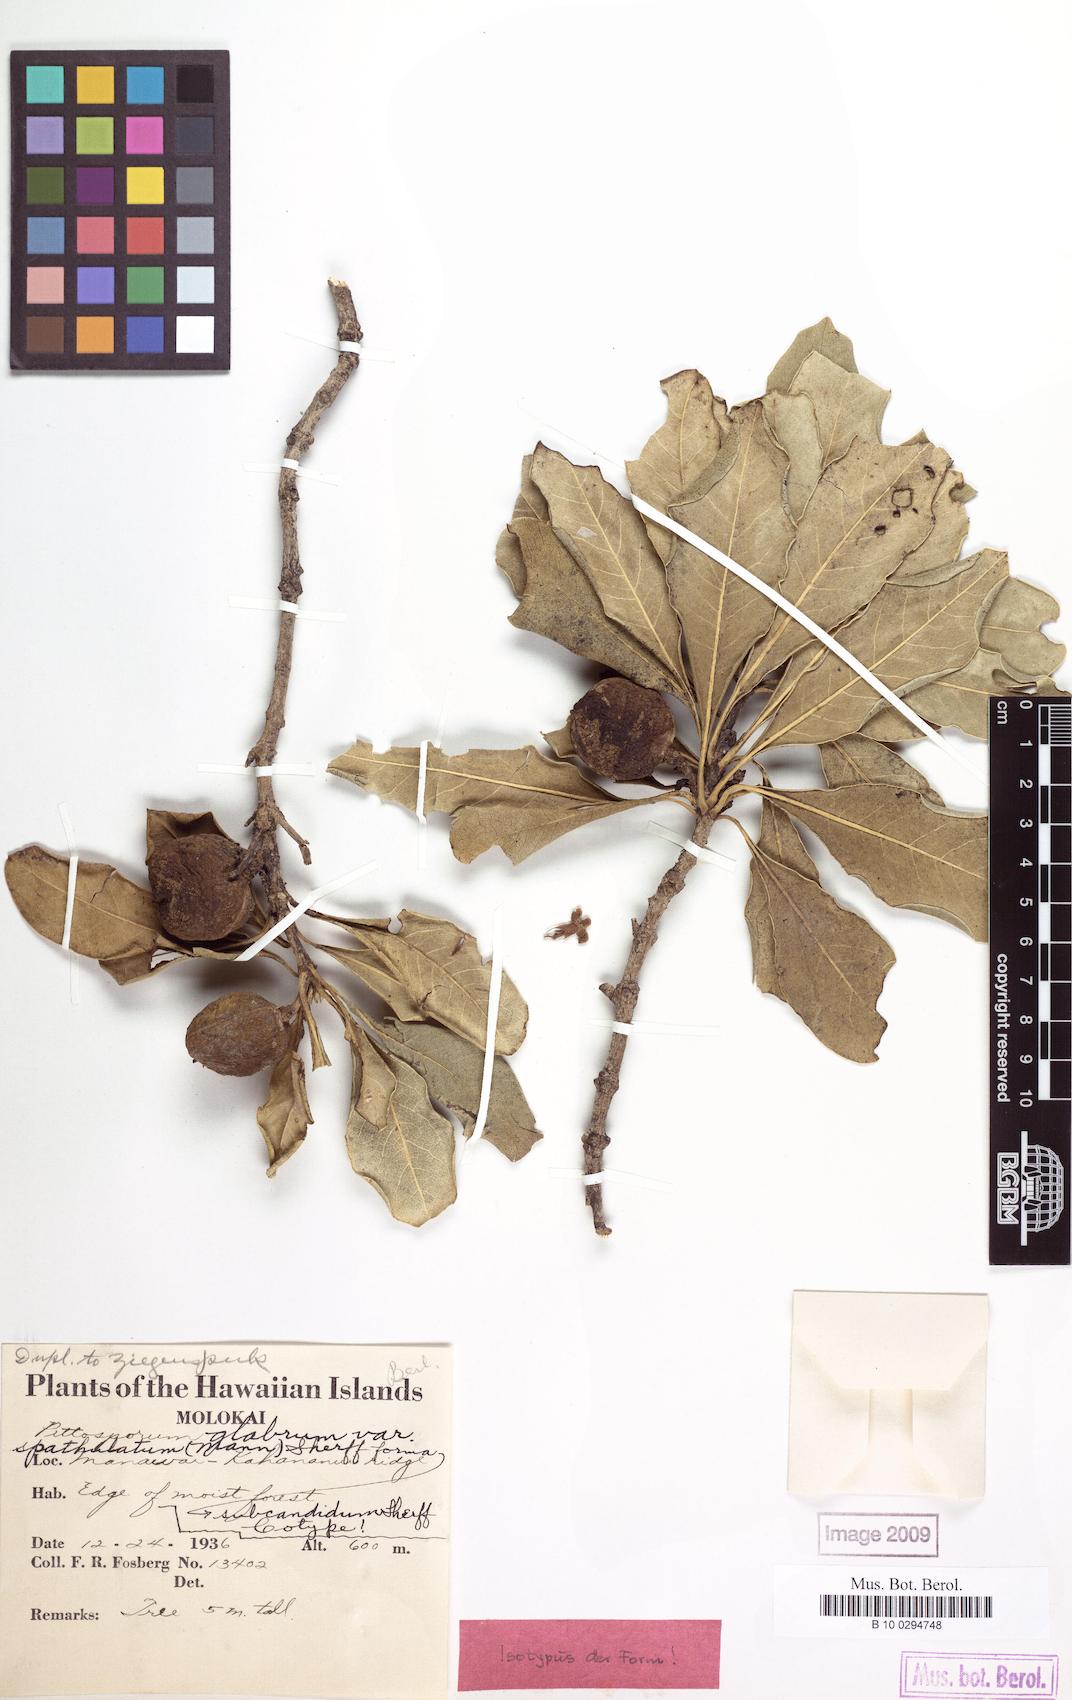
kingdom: Plantae
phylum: Tracheophyta
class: Magnoliopsida
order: Apiales
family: Pittosporaceae
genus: Pittosporum
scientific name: Pittosporum glabrum
